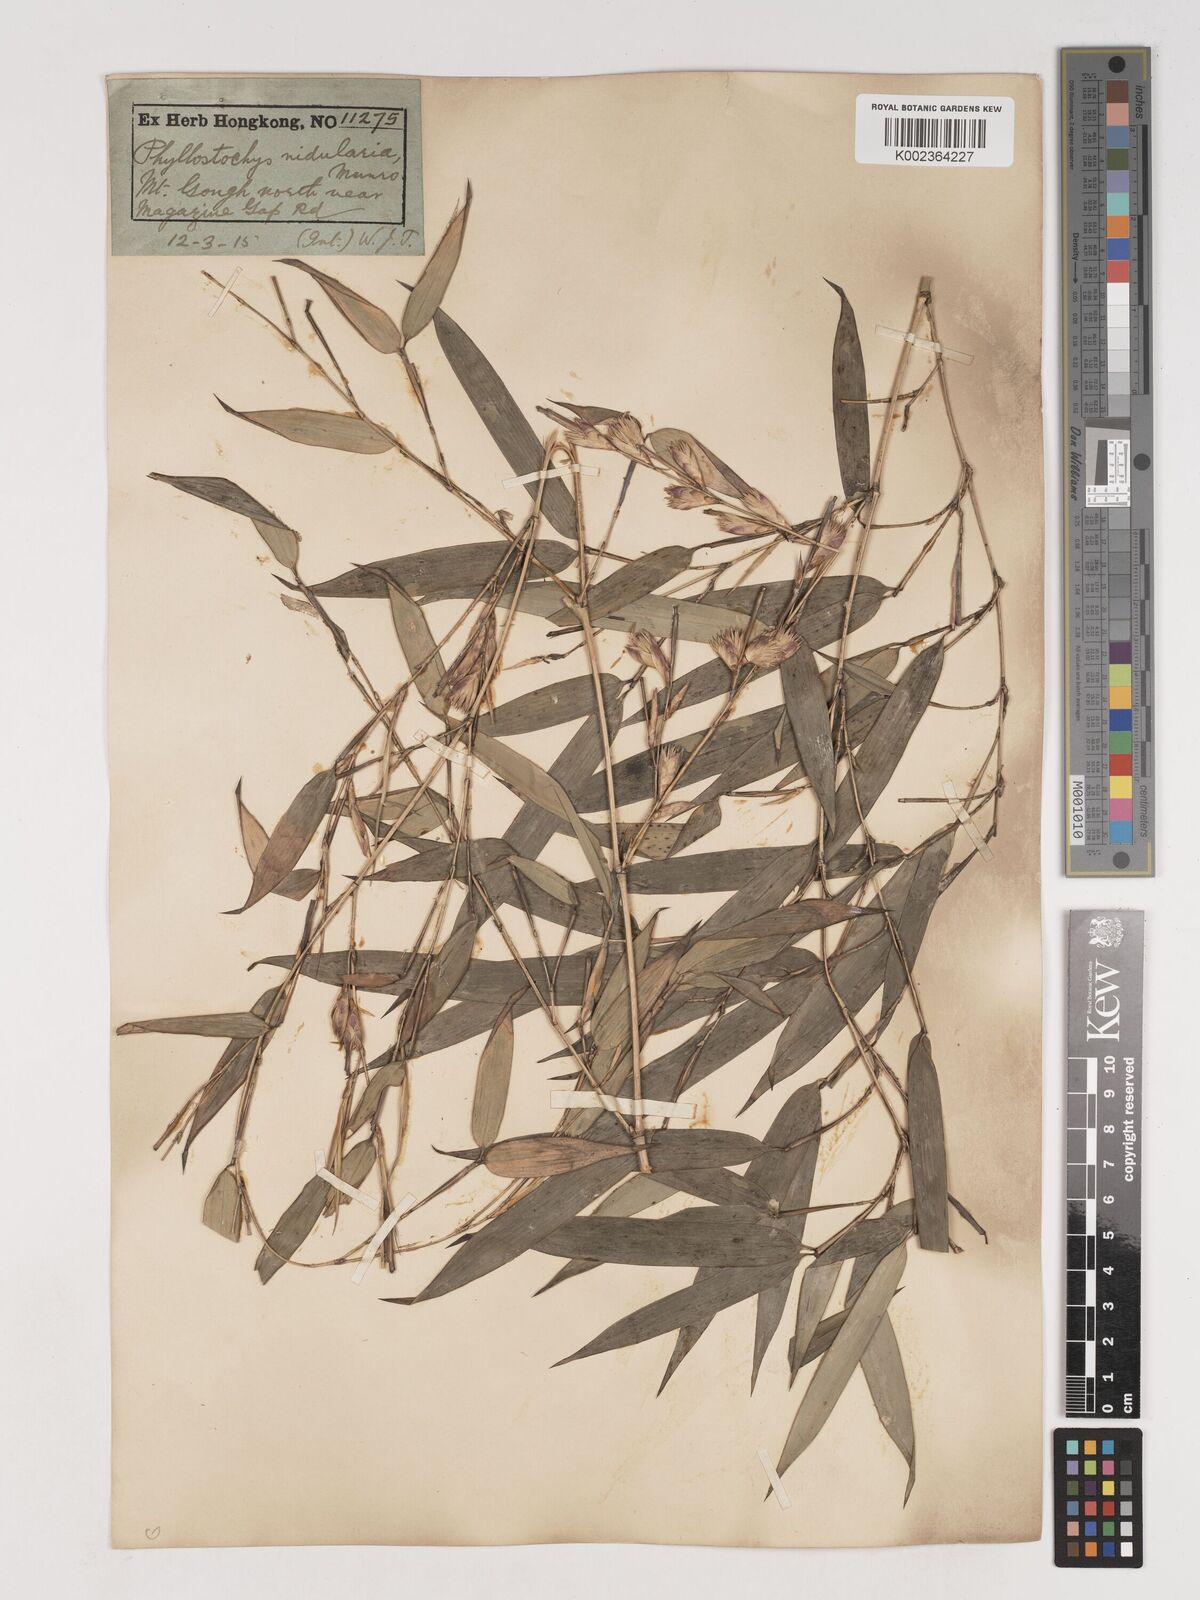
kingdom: Plantae
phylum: Tracheophyta
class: Liliopsida
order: Poales
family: Poaceae
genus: Phyllostachys
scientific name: Phyllostachys nidularia
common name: Broom bamboo
